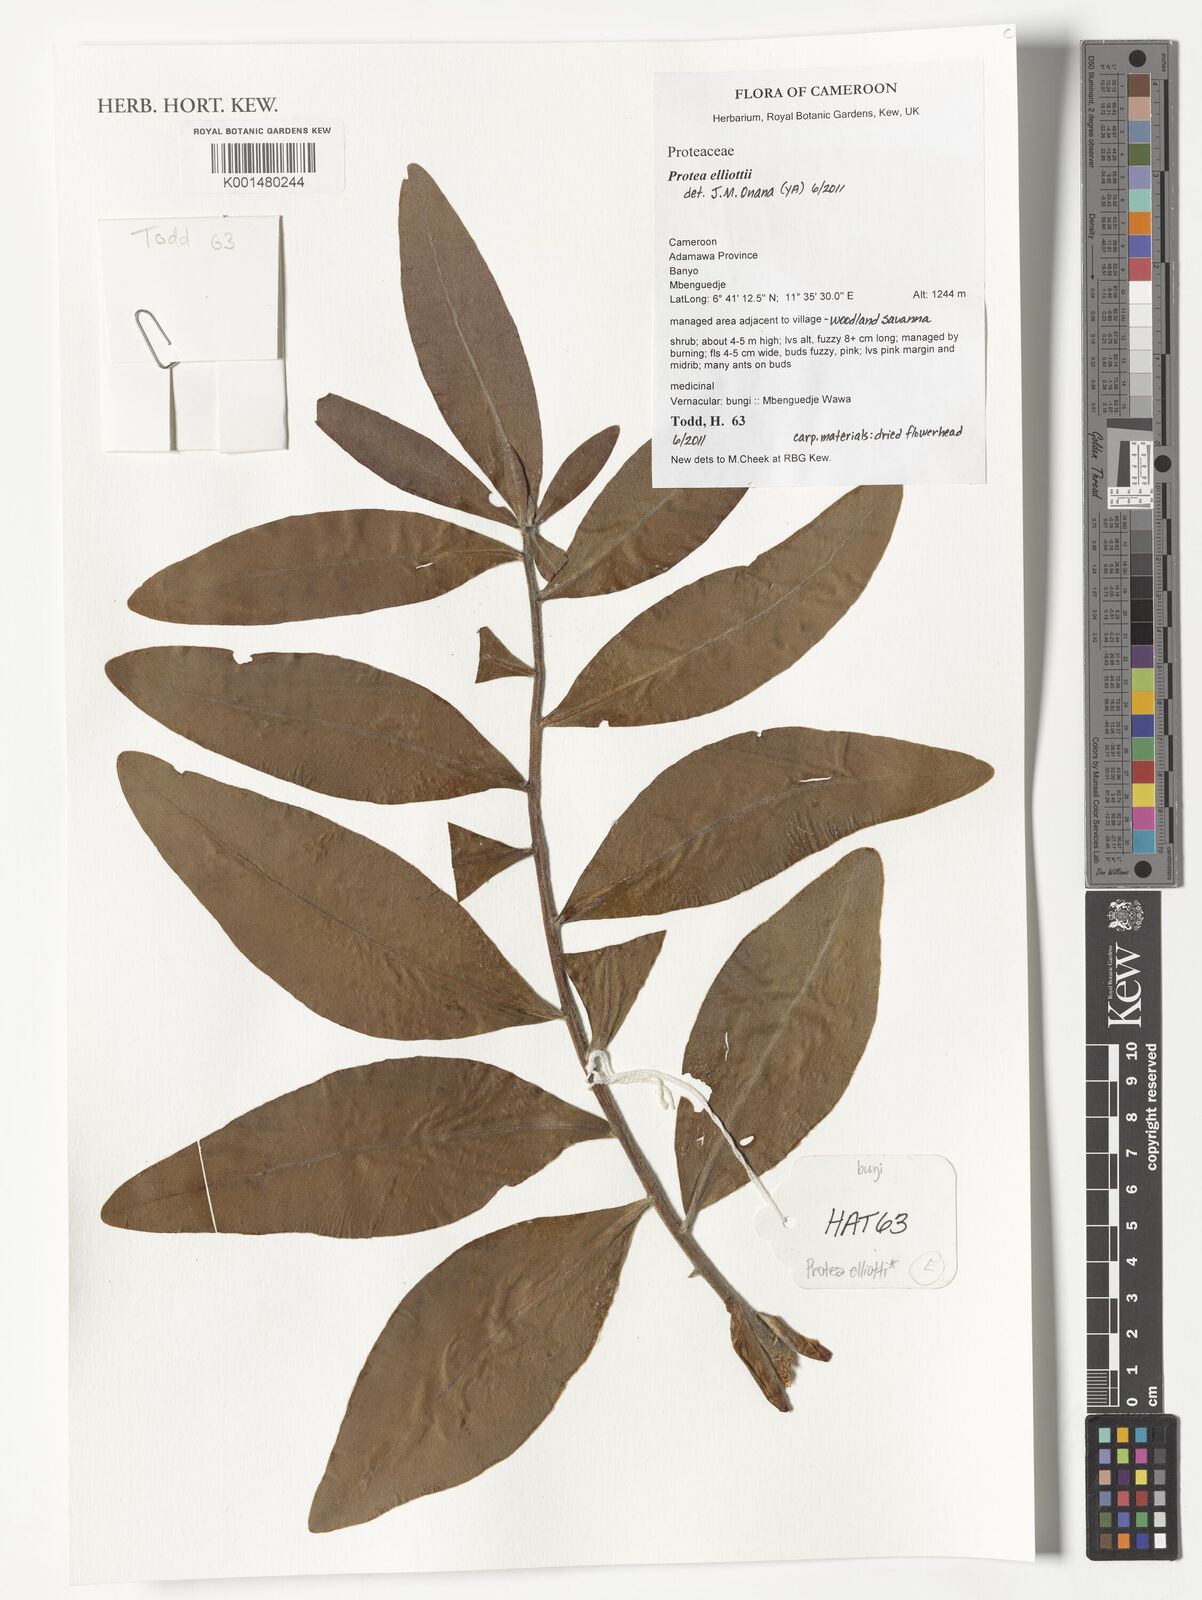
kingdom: Plantae
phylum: Tracheophyta
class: Magnoliopsida
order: Proteales
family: Proteaceae
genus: Protea
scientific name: Protea madiensis
